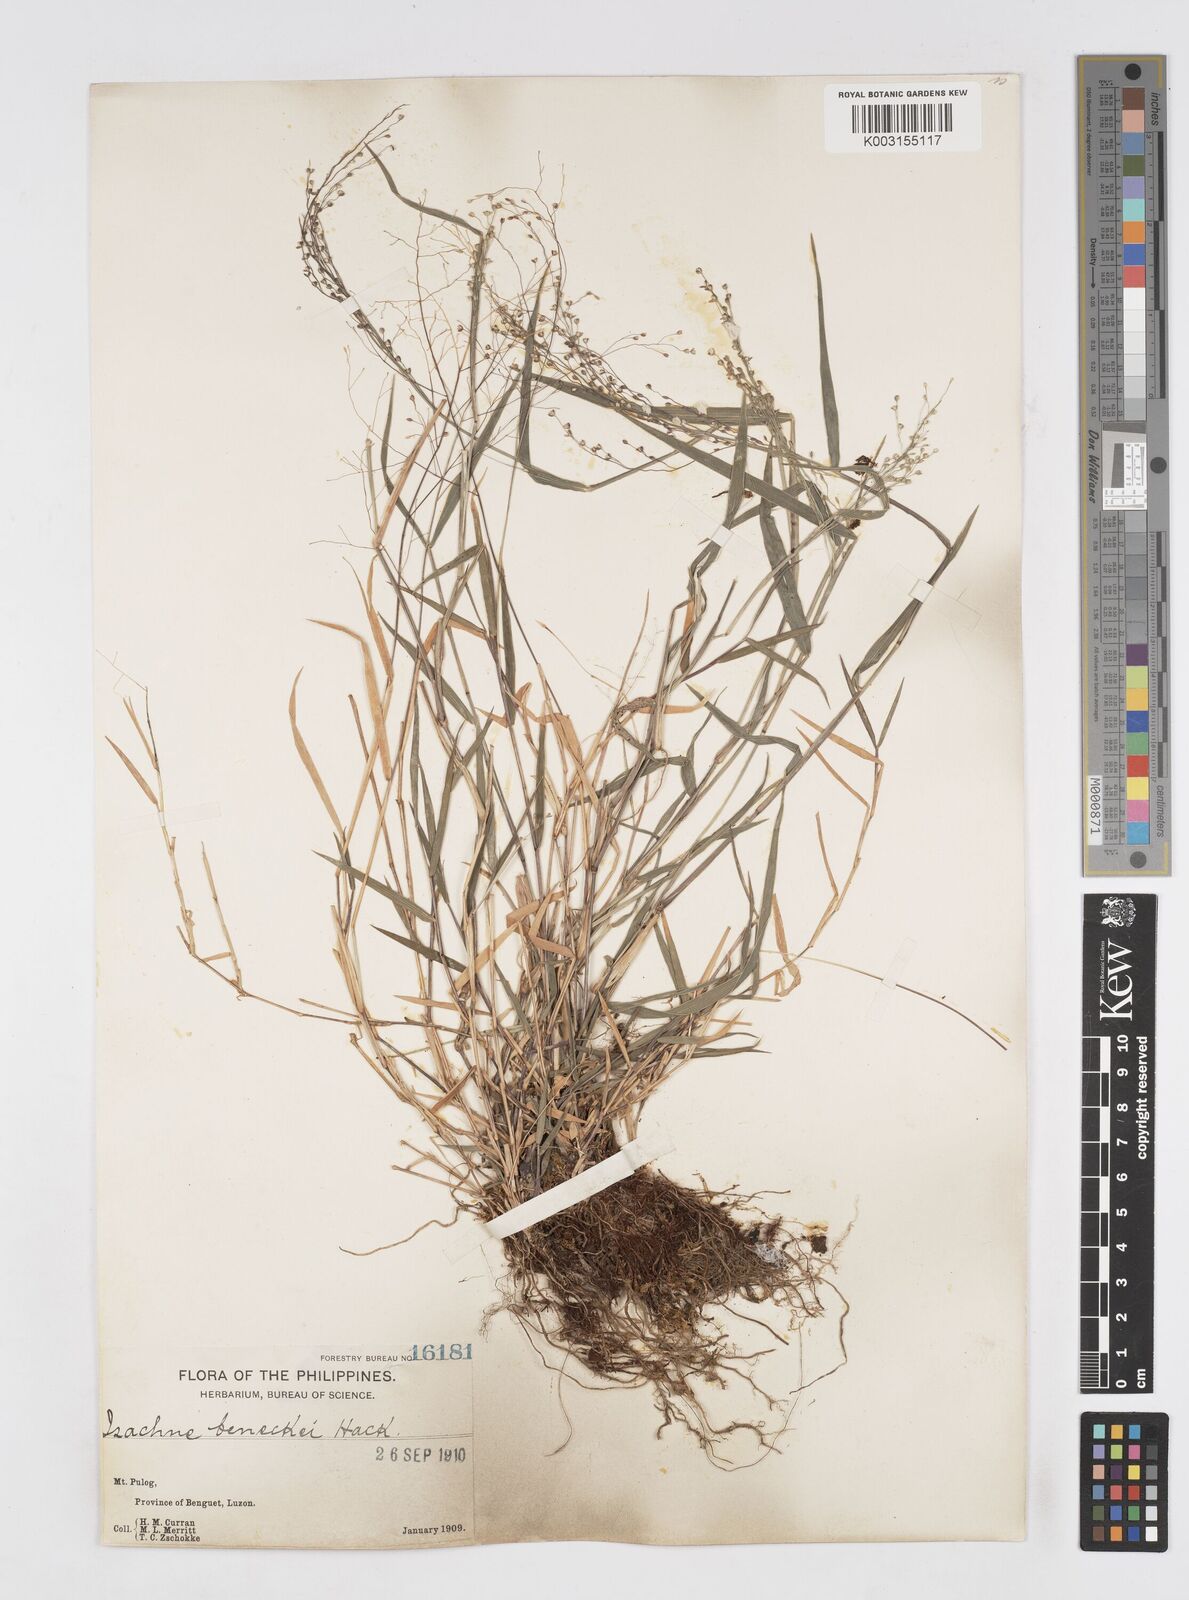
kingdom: Plantae
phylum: Tracheophyta
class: Liliopsida
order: Poales
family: Poaceae
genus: Isachne
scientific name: Isachne
